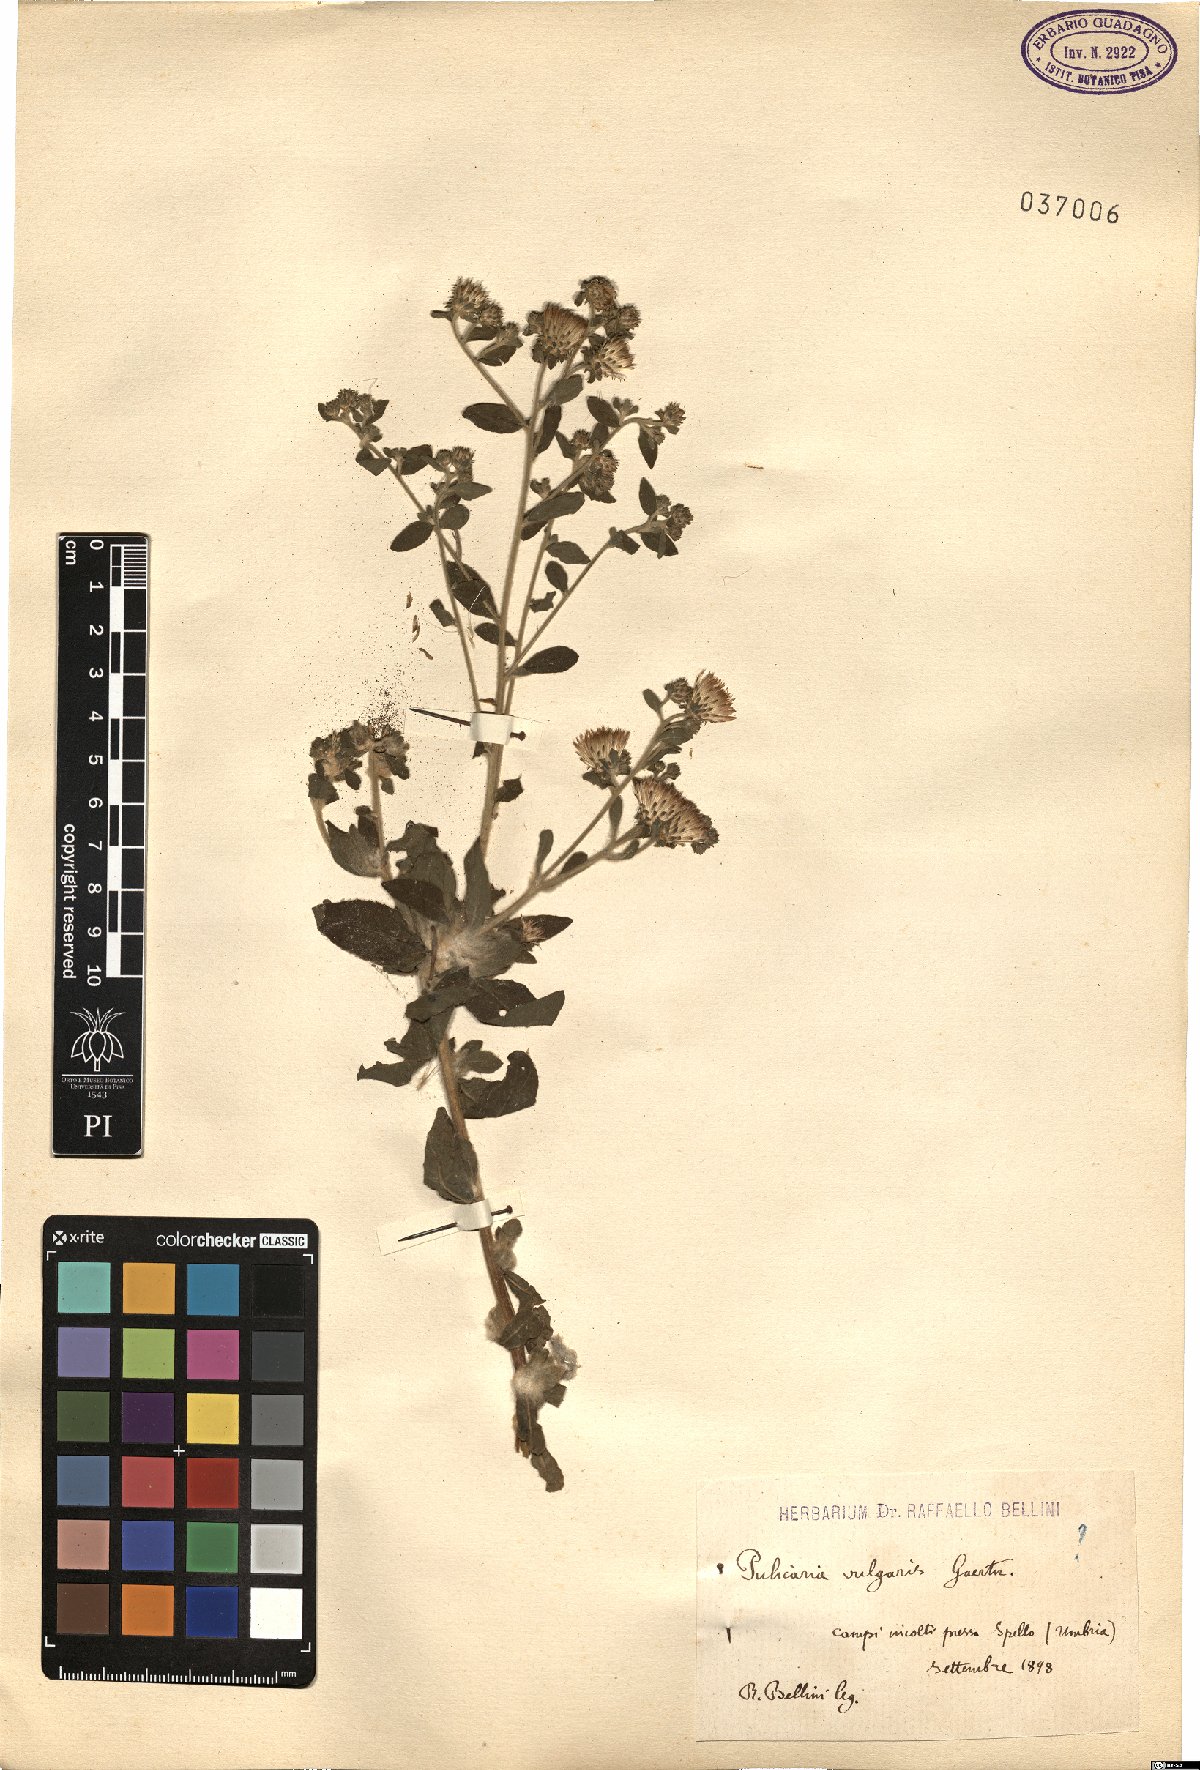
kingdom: Plantae
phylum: Tracheophyta
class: Magnoliopsida
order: Asterales
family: Asteraceae
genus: Pulicaria
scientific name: Pulicaria vulgaris
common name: Small fleabane
